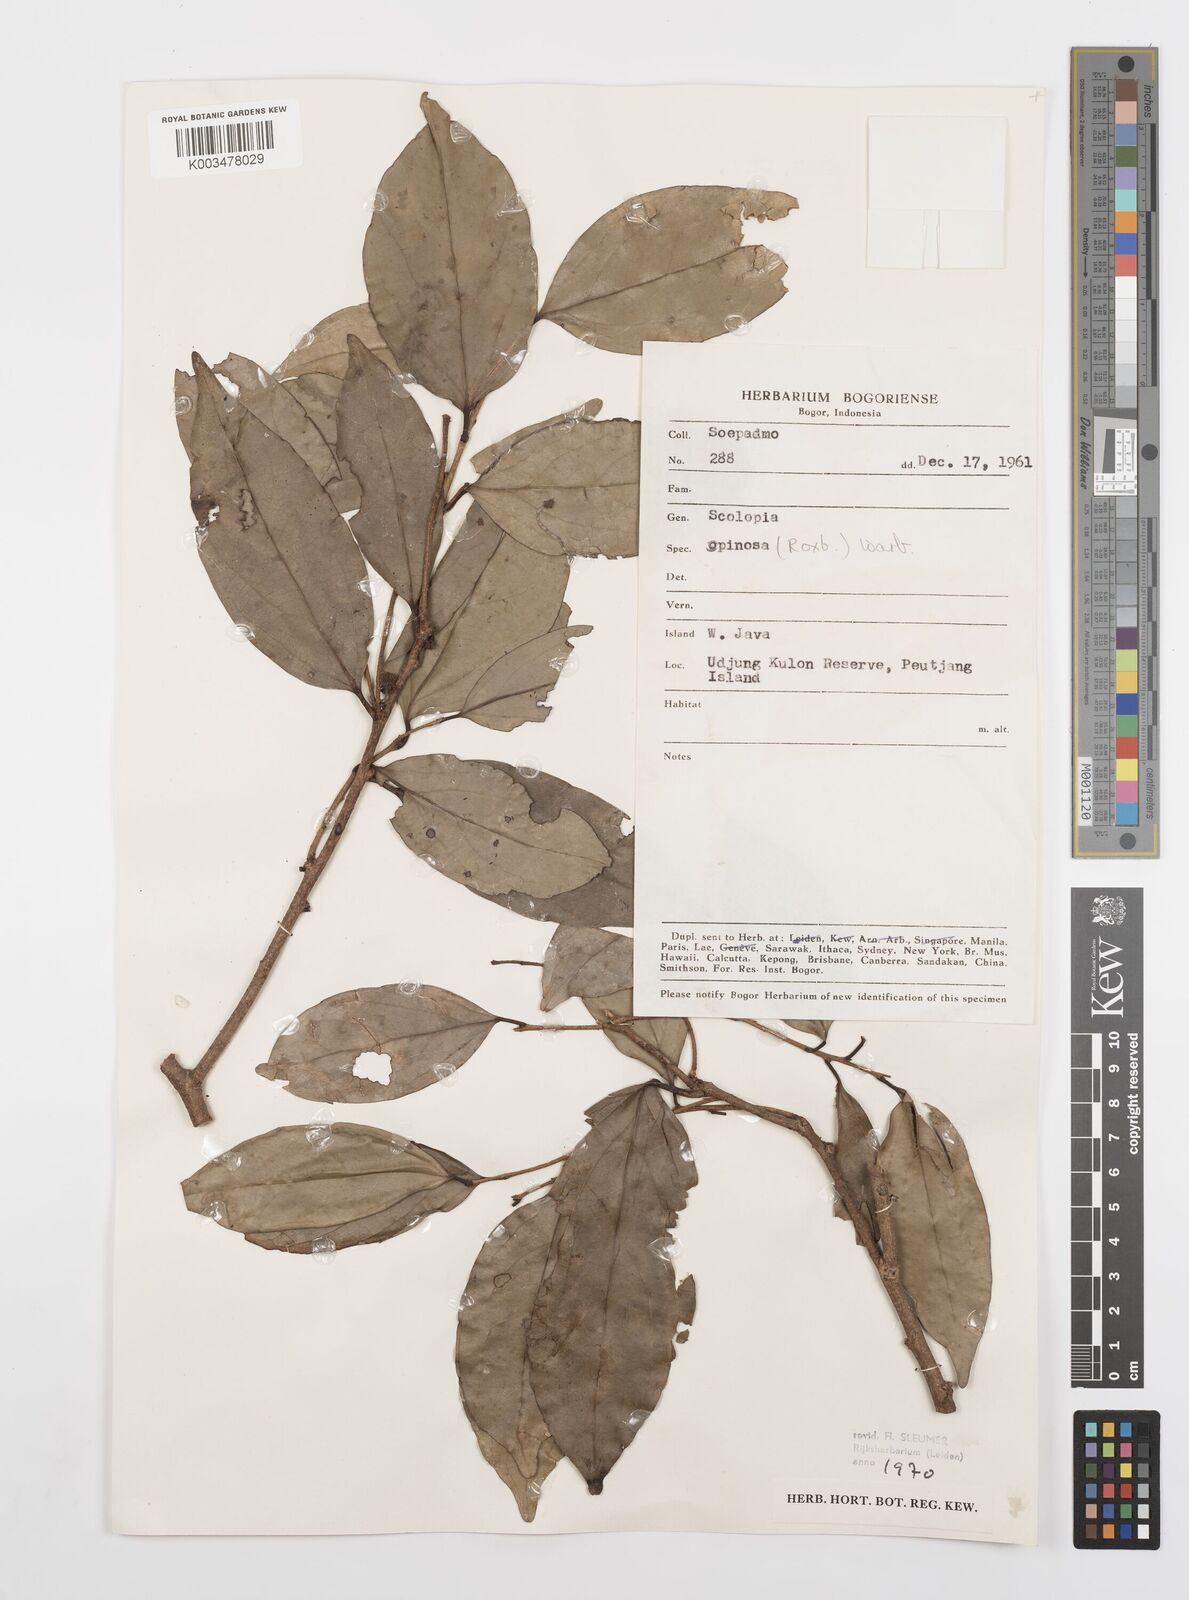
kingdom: Plantae
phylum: Tracheophyta
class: Magnoliopsida
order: Malpighiales
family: Salicaceae
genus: Scolopia
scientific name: Scolopia spinosa
